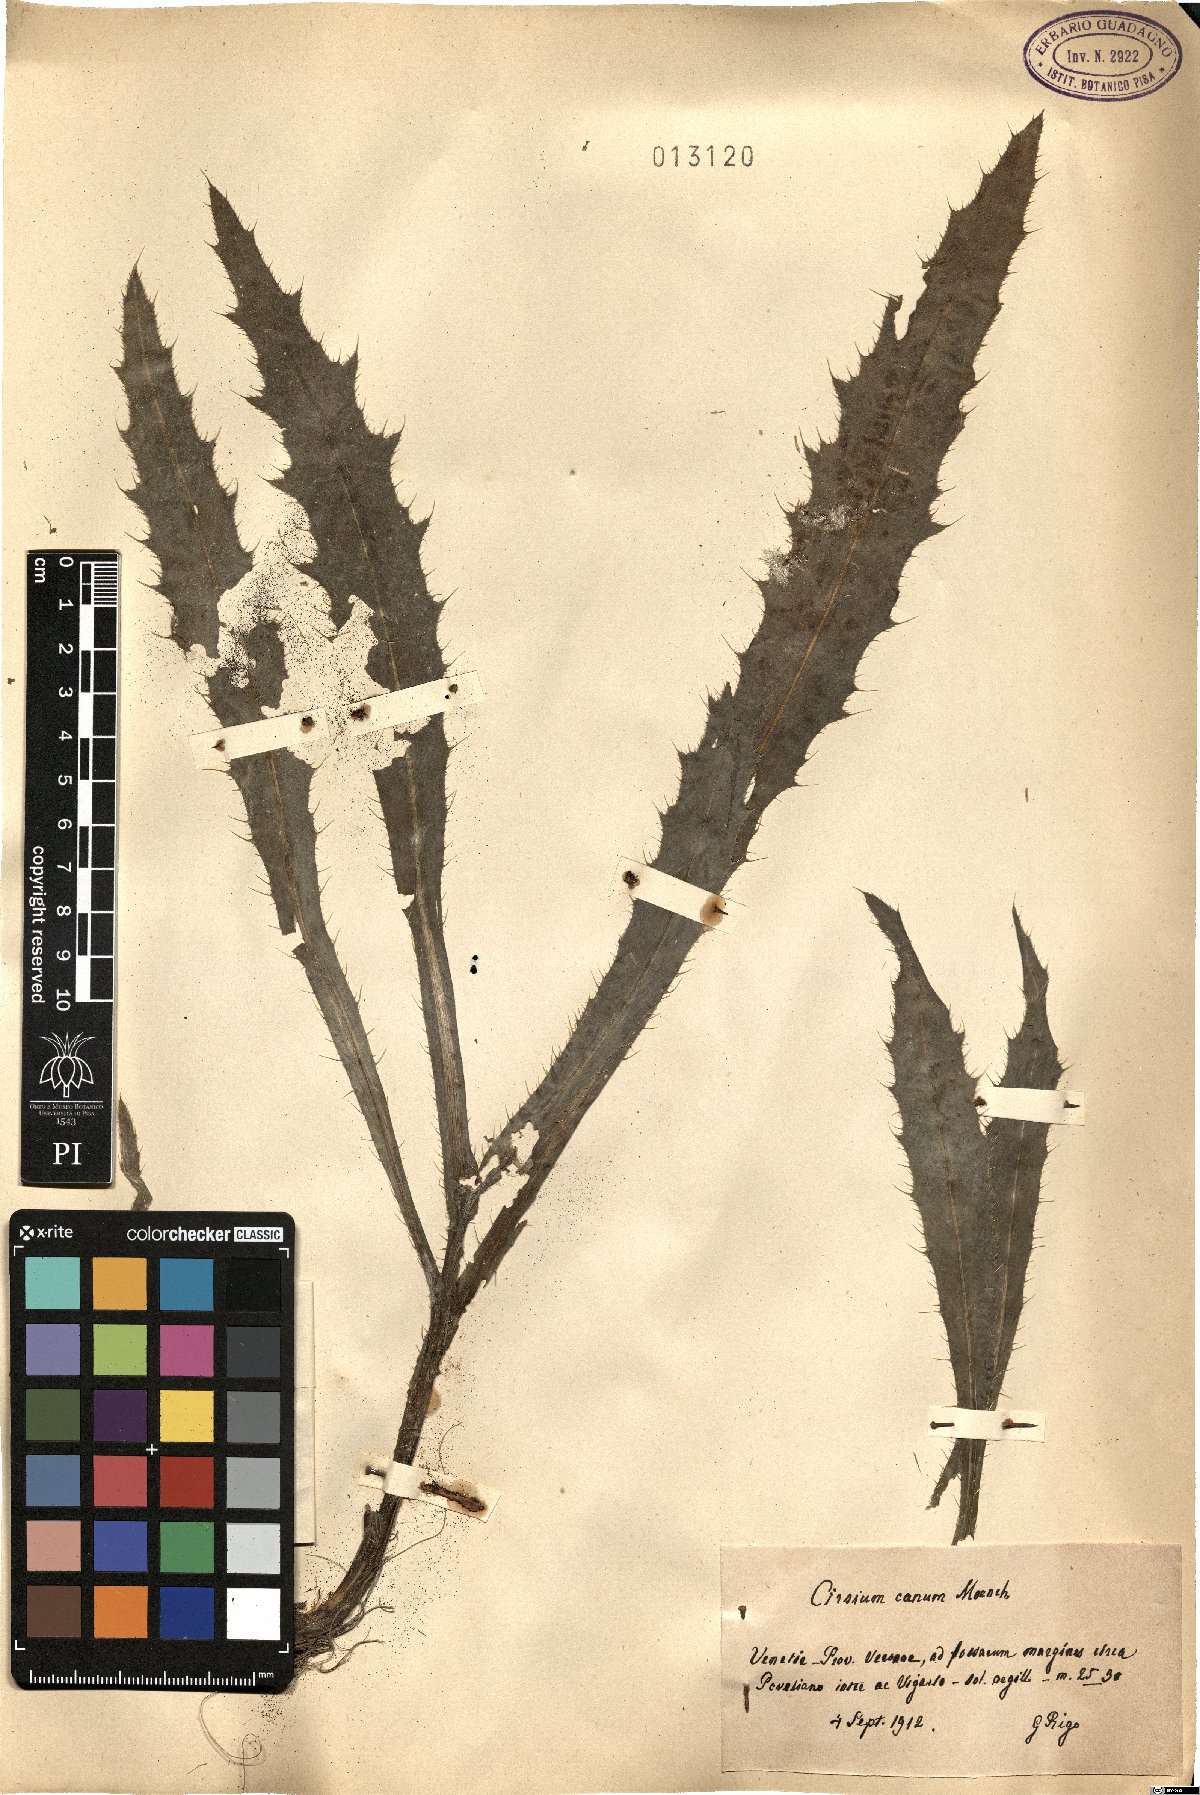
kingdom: Plantae
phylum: Tracheophyta
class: Magnoliopsida
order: Asterales
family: Asteraceae
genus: Cirsium
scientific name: Cirsium canum
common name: Queen anne's thistle
